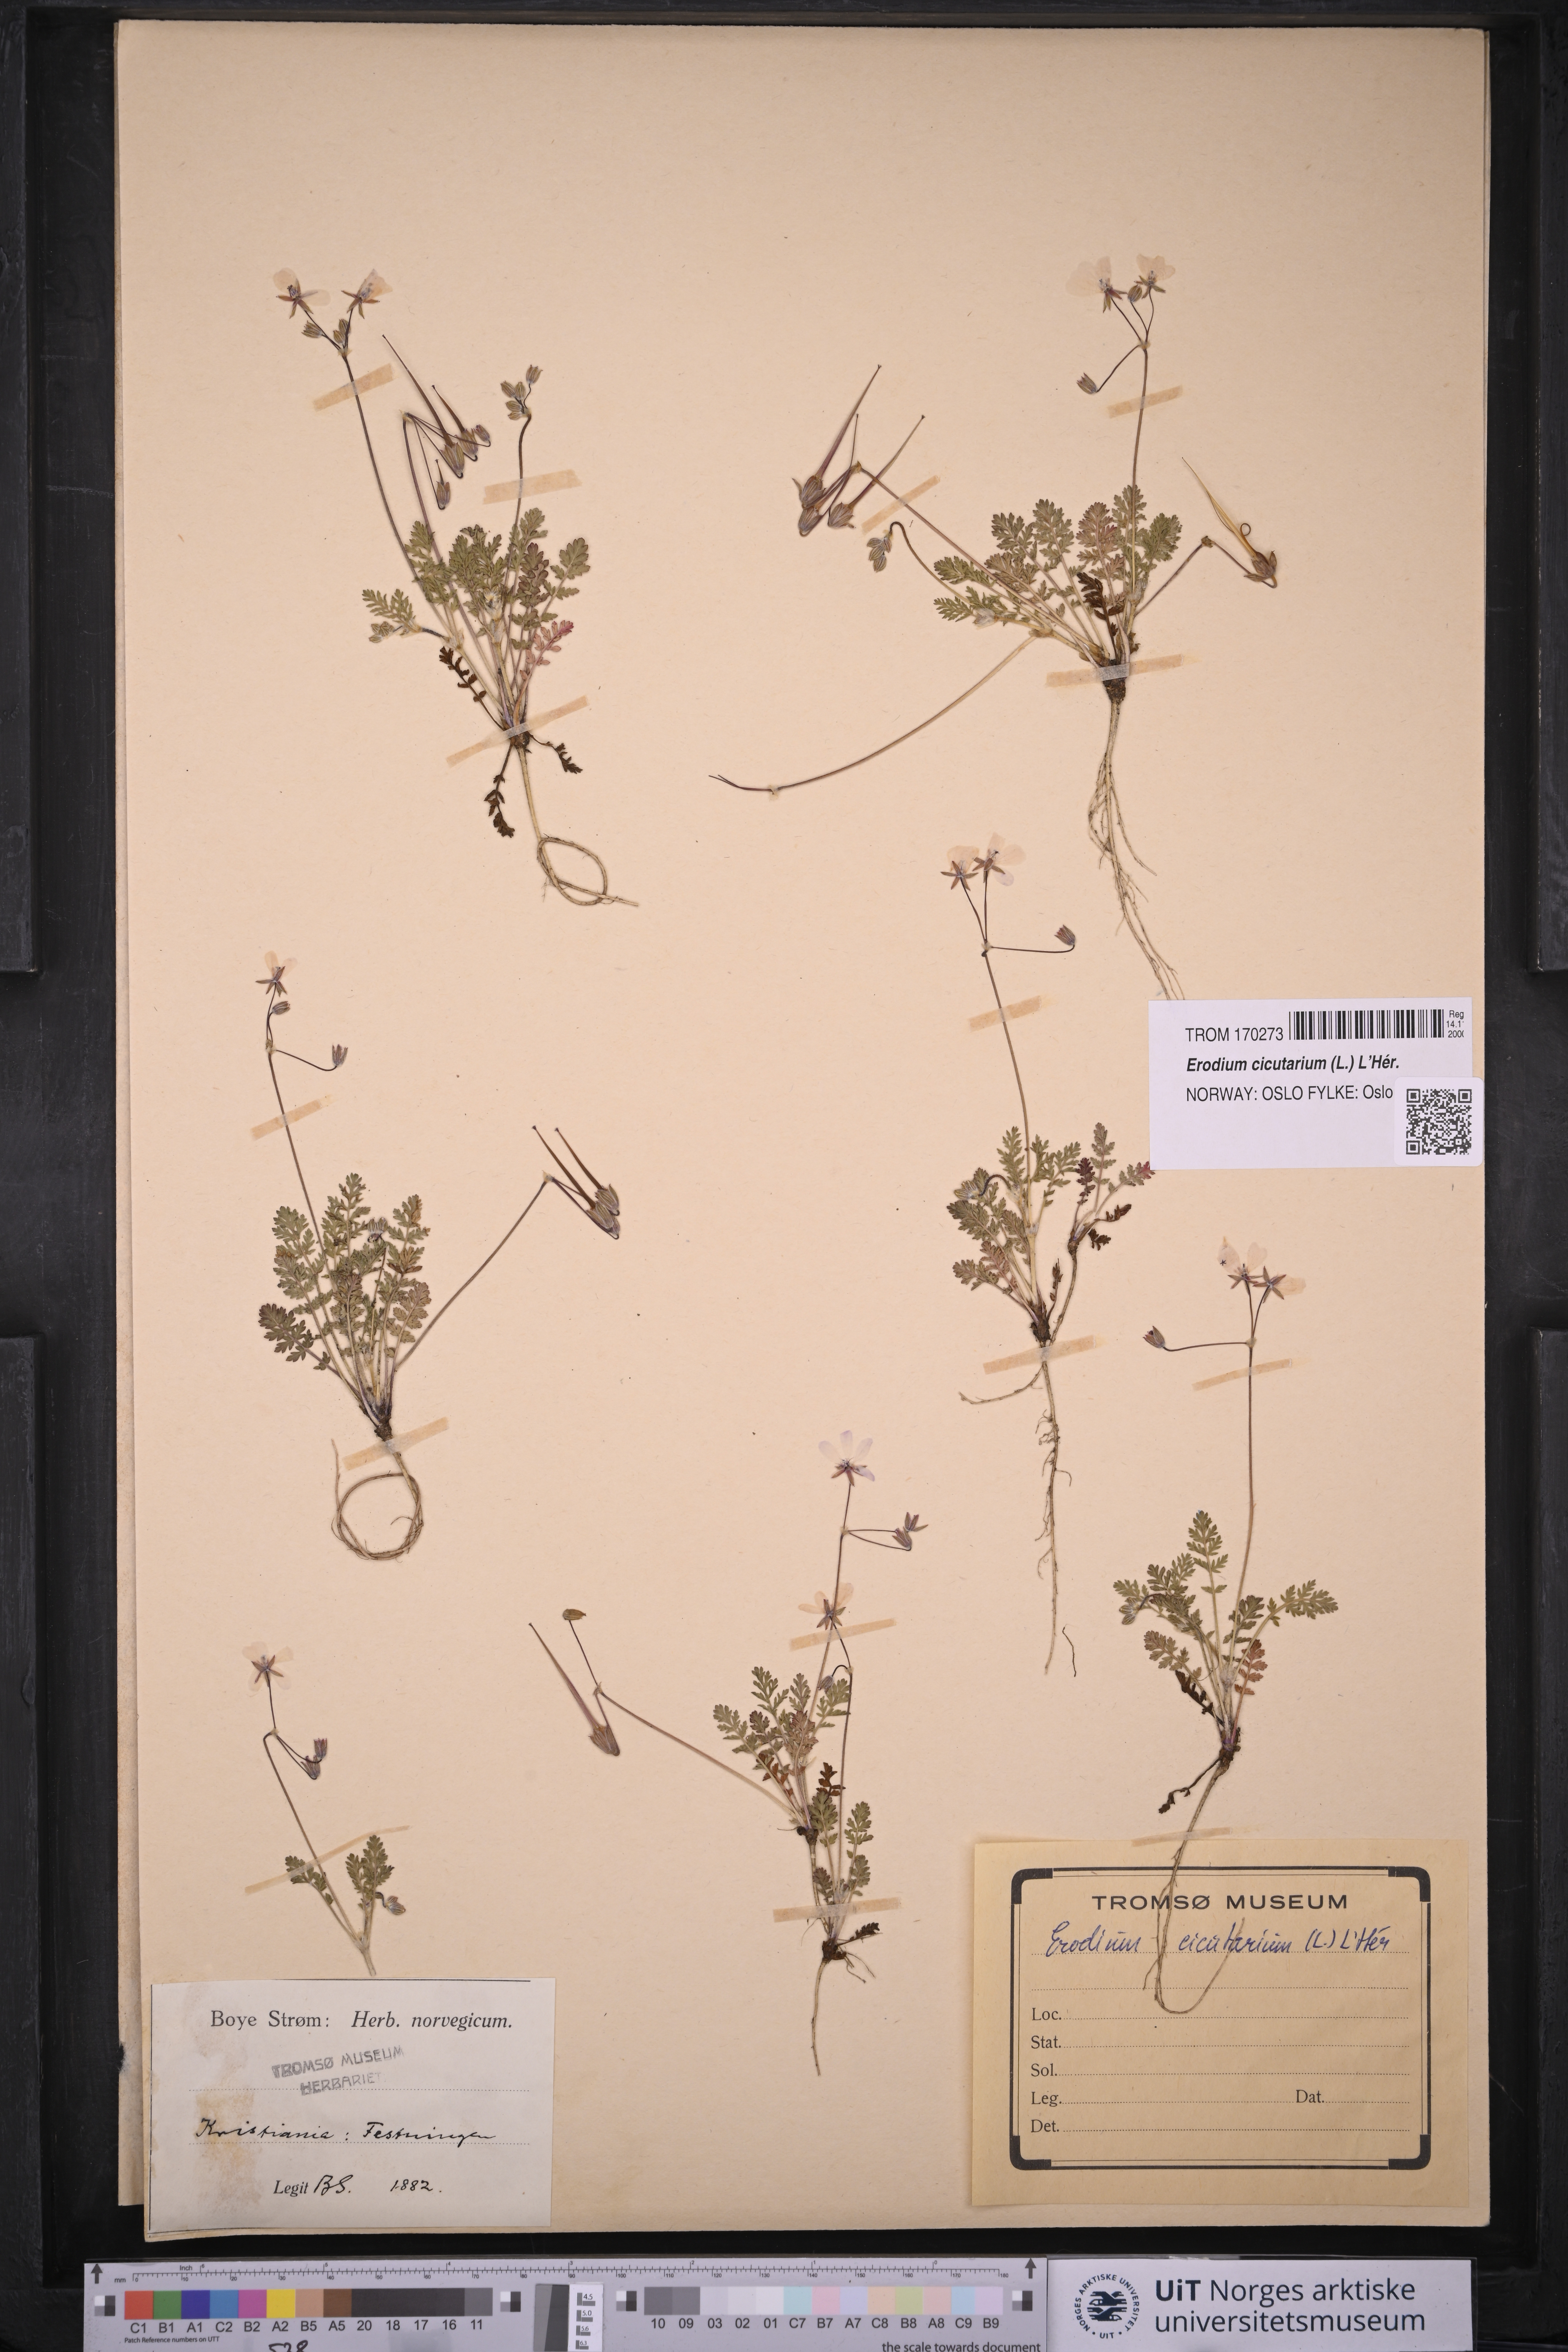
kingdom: Plantae
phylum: Tracheophyta
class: Magnoliopsida
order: Geraniales
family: Geraniaceae
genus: Erodium
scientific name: Erodium cicutarium
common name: Common stork's-bill
